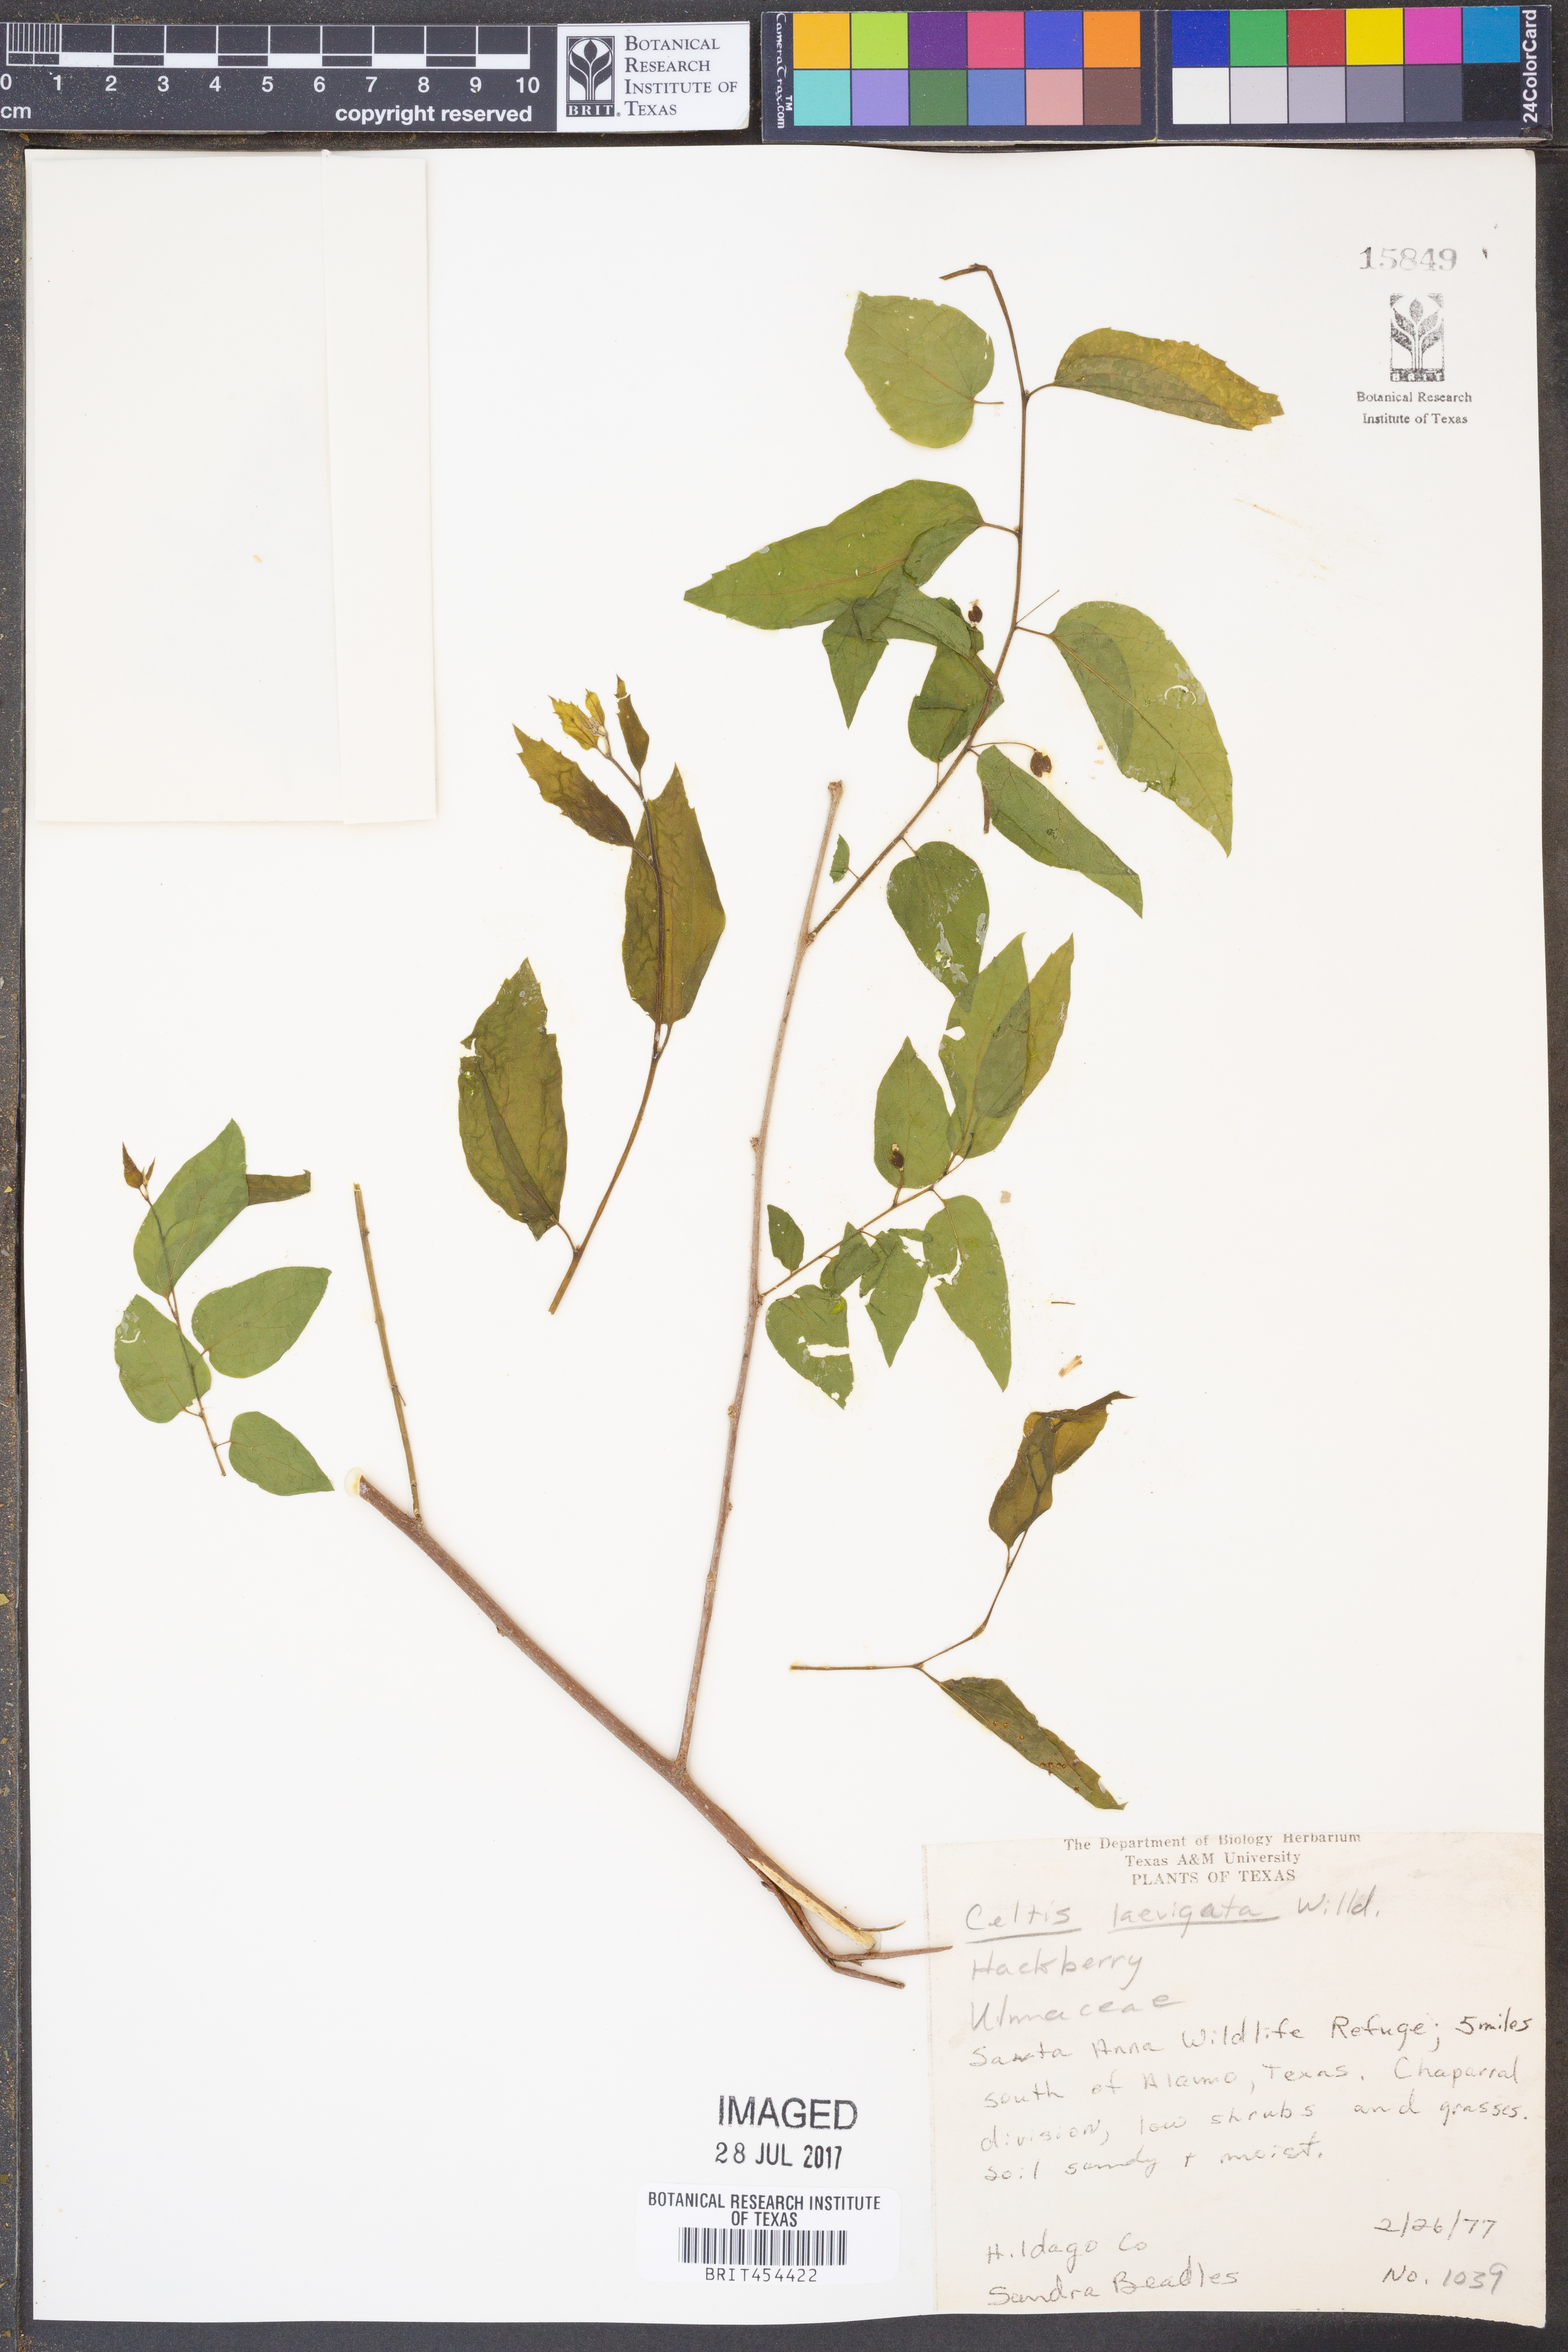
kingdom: Plantae
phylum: Tracheophyta
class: Magnoliopsida
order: Rosales
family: Cannabaceae
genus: Celtis
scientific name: Celtis laevigata
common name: Sugarberry
